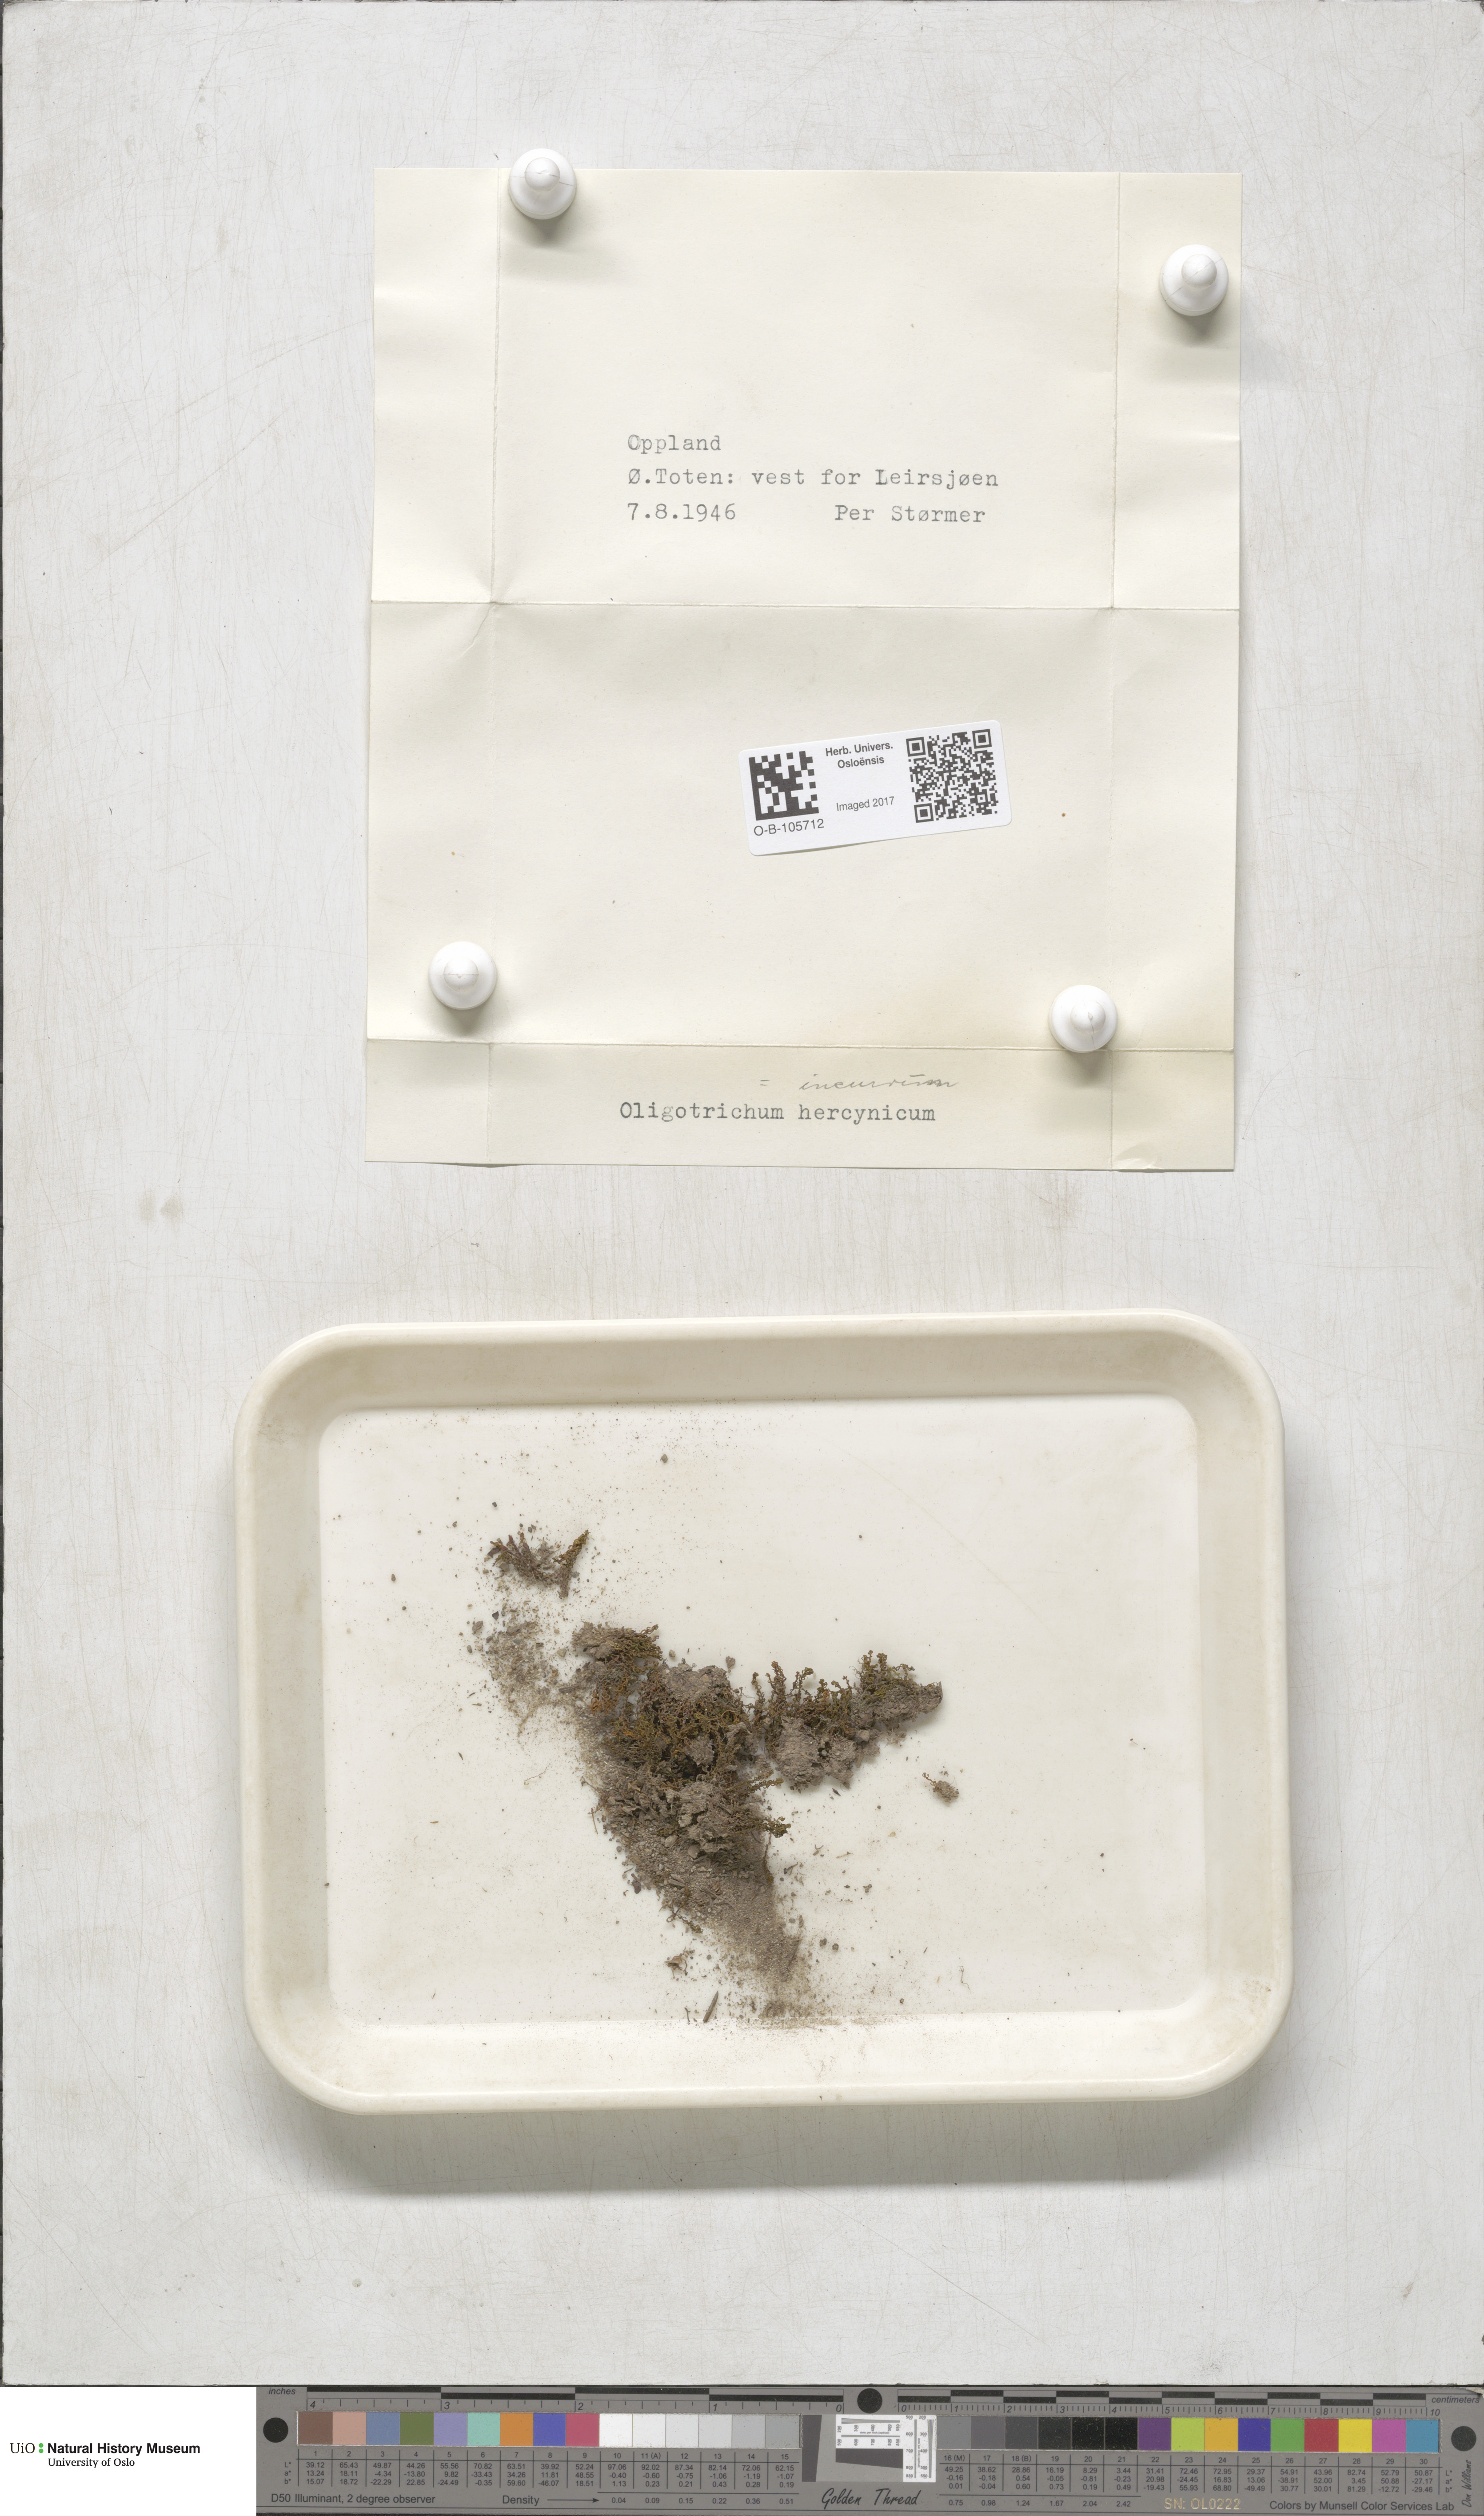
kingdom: Plantae
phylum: Bryophyta
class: Polytrichopsida
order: Polytrichales
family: Polytrichaceae
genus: Oligotrichum
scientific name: Oligotrichum hercynicum
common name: Hercynian hair moss
